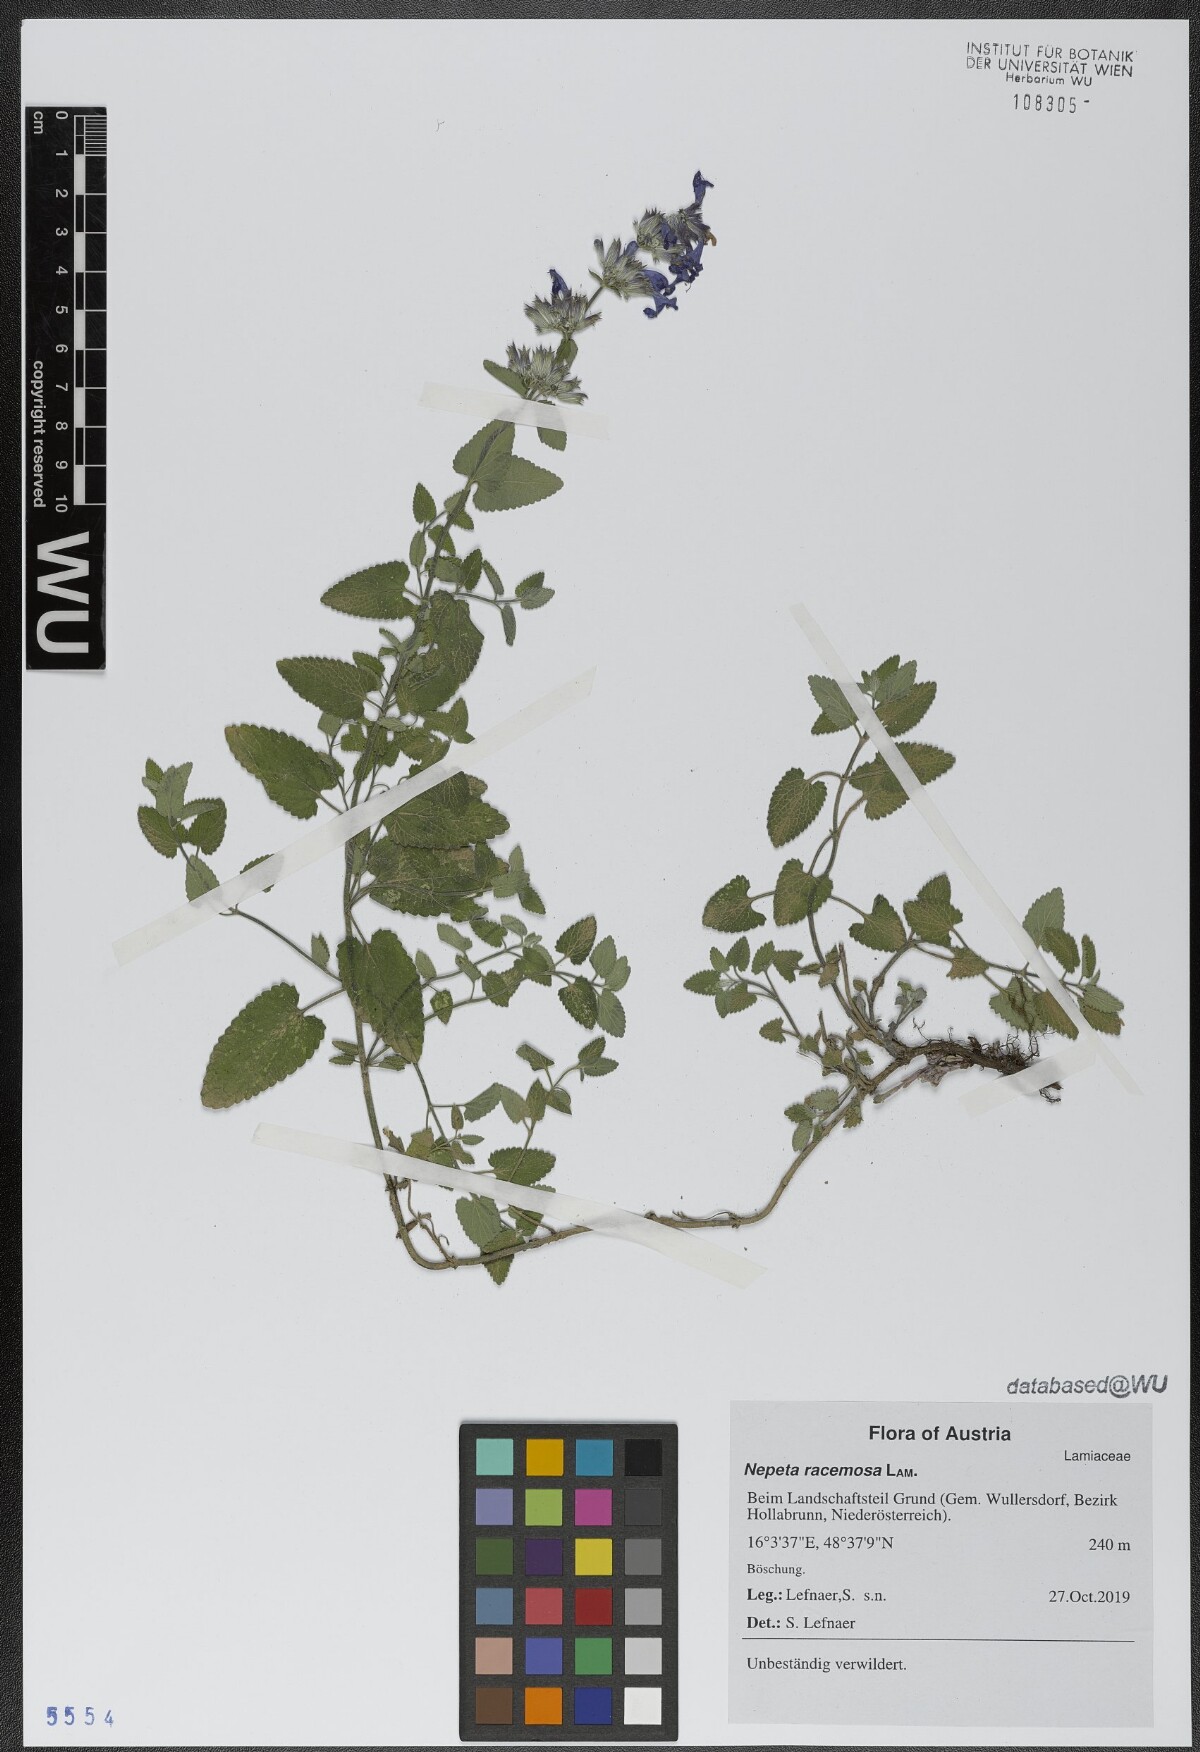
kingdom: Plantae
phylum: Tracheophyta
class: Magnoliopsida
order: Lamiales
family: Lamiaceae
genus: Nepeta
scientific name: Nepeta racemosa
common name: Raceme catnip
